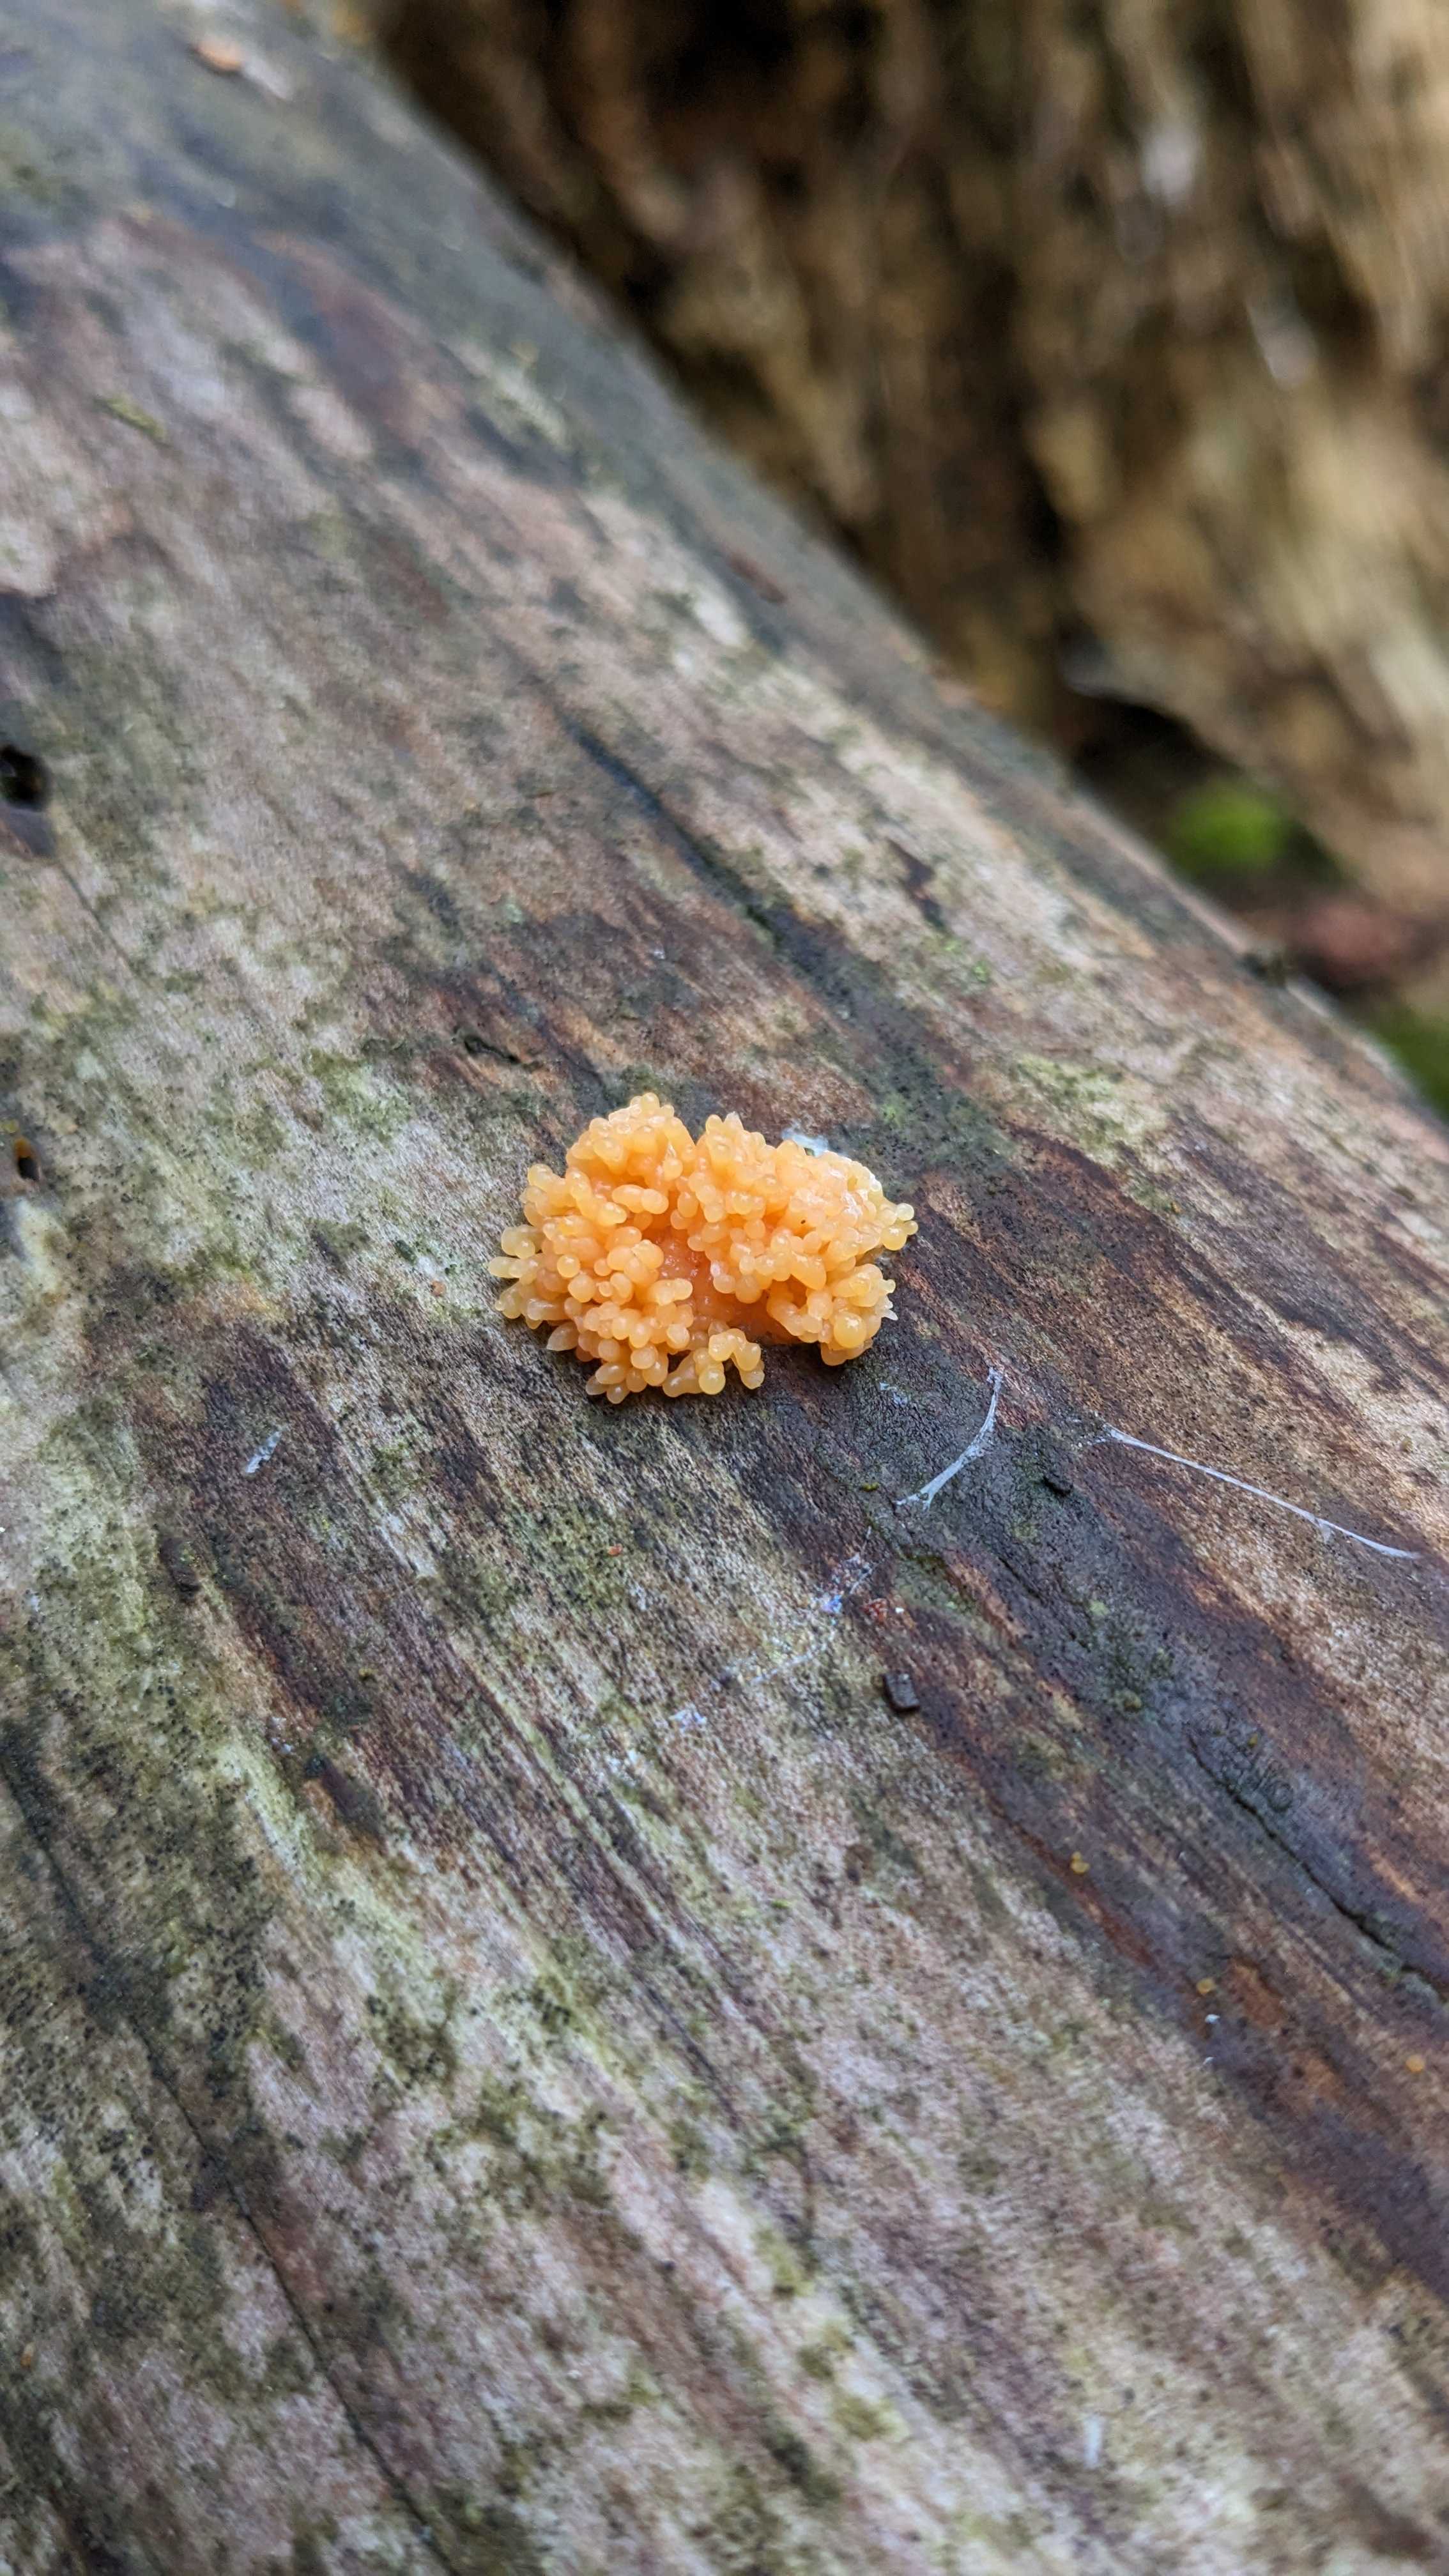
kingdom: Protozoa
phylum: Mycetozoa
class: Myxomycetes
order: Cribrariales
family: Tubiferaceae
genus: Tubifera
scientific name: Tubifera
